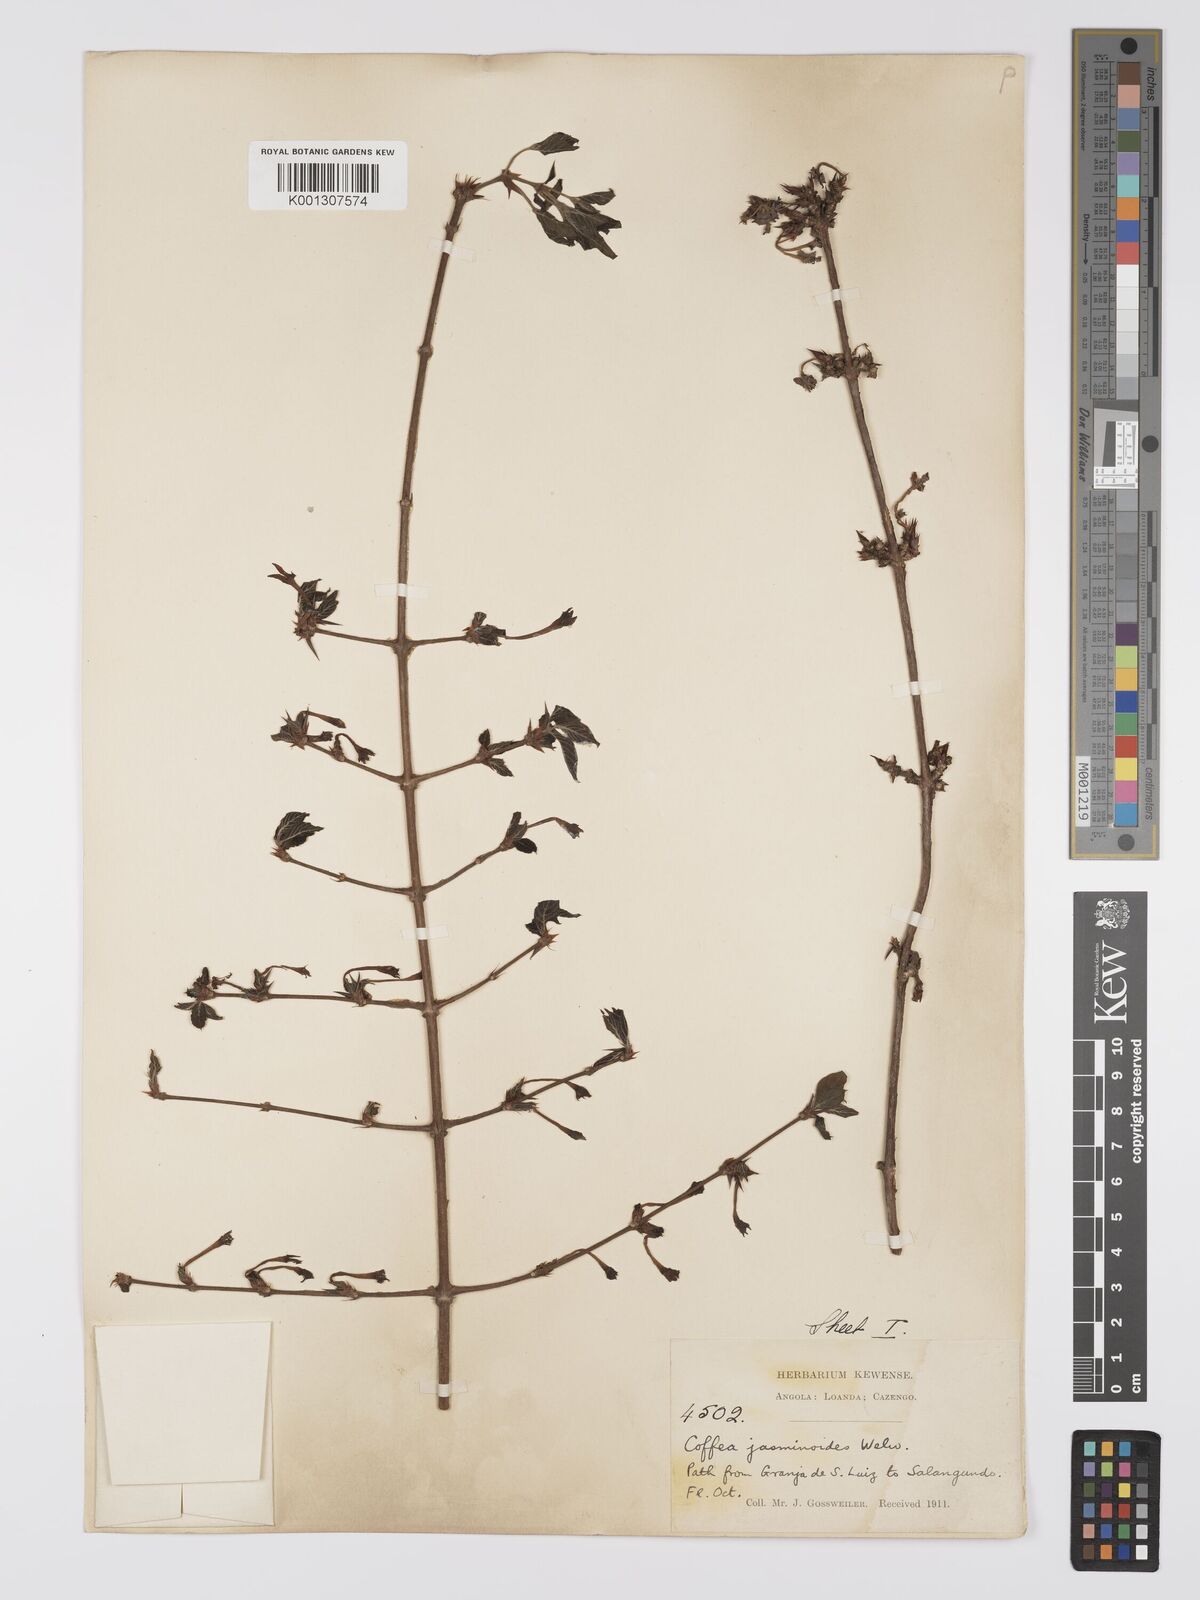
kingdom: Plantae
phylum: Tracheophyta
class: Magnoliopsida
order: Gentianales
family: Rubiaceae
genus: Argocoffeopsis
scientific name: Argocoffeopsis eketensis
